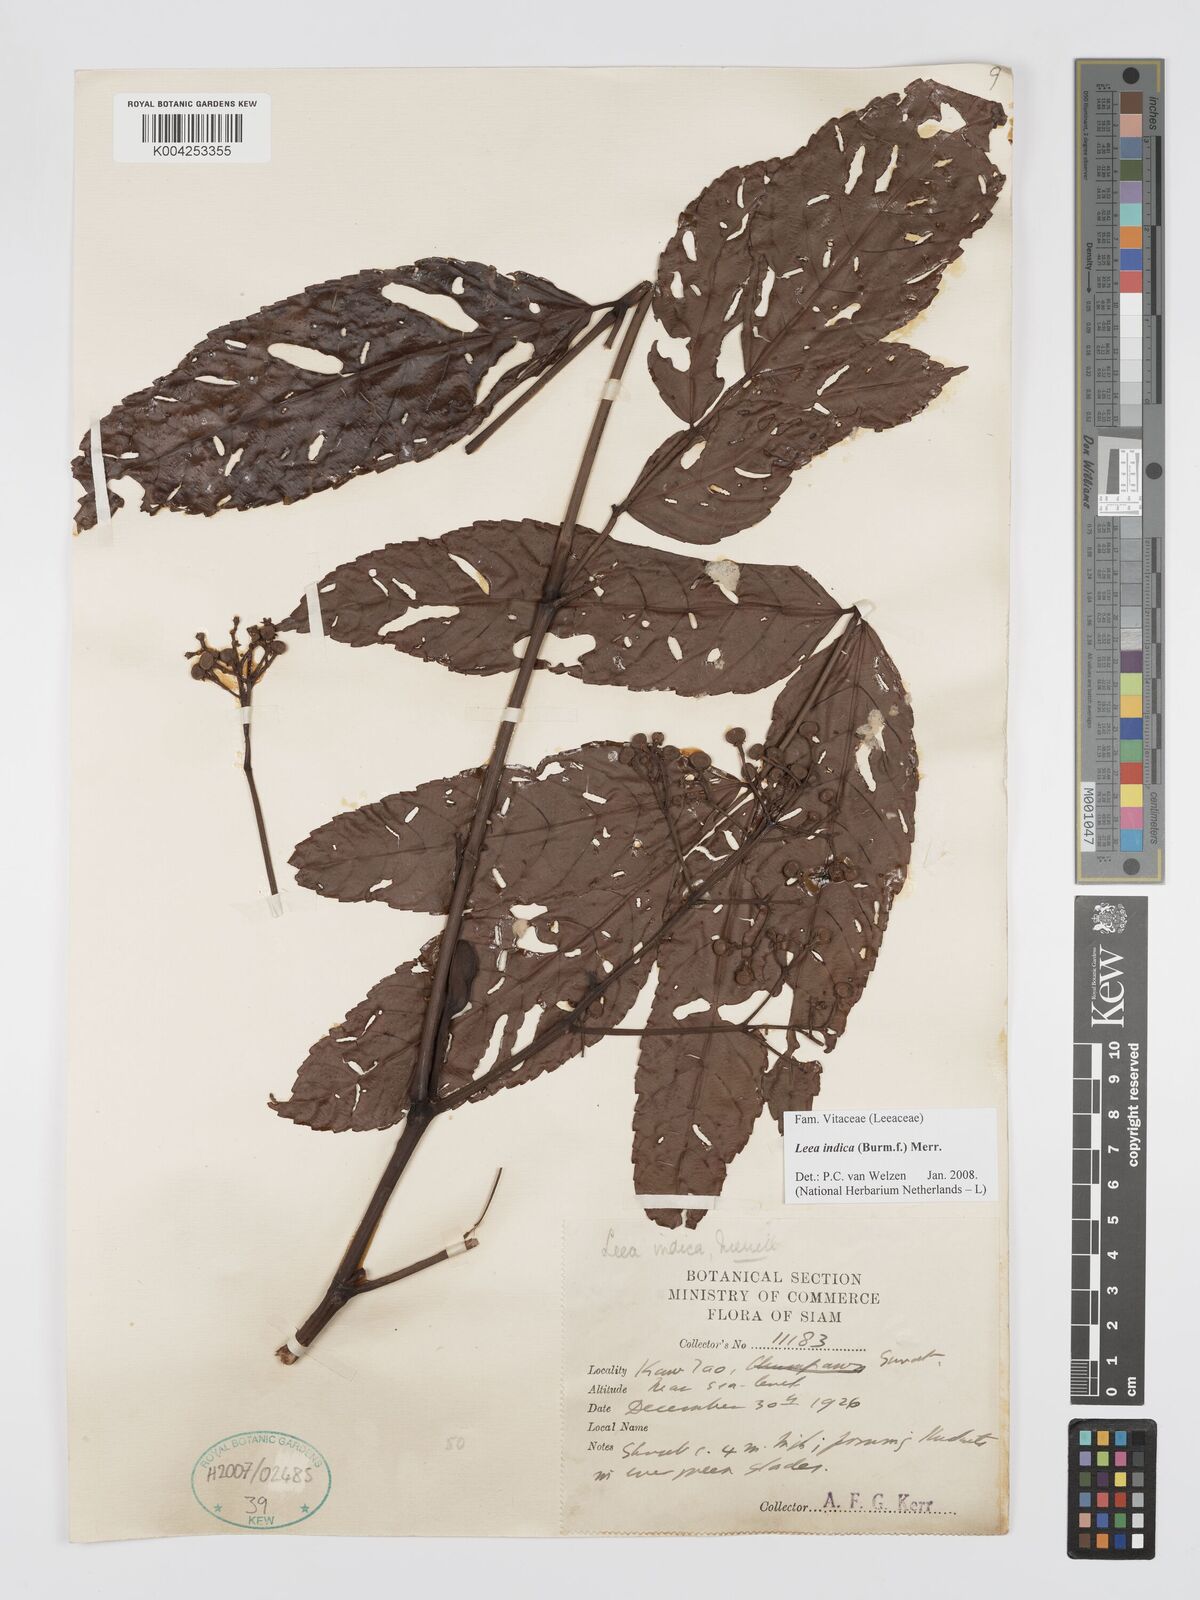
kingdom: Plantae
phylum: Tracheophyta
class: Magnoliopsida
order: Vitales
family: Vitaceae
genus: Leea
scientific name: Leea indica
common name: Bandicoot-berry
